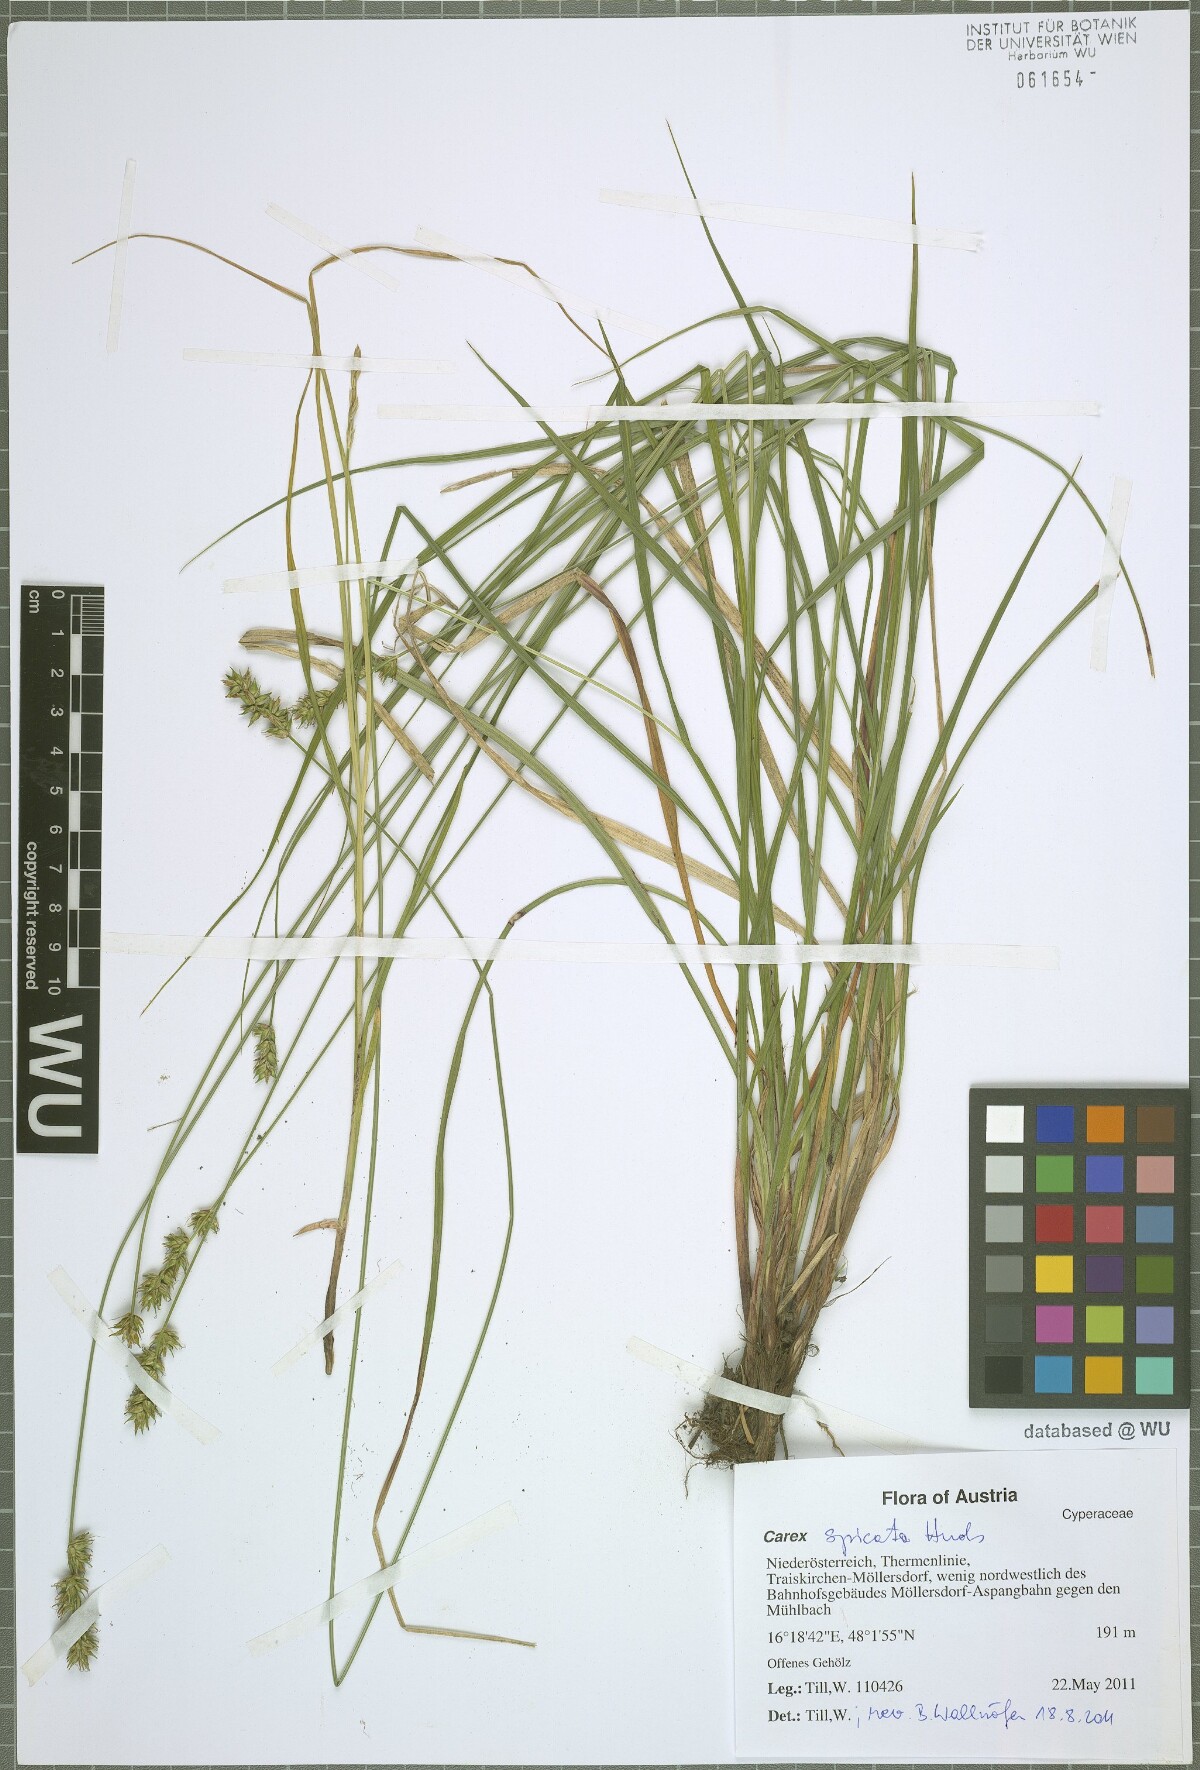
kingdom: Plantae
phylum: Tracheophyta
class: Liliopsida
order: Poales
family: Cyperaceae
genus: Carex
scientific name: Carex spicata
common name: Spiked sedge
